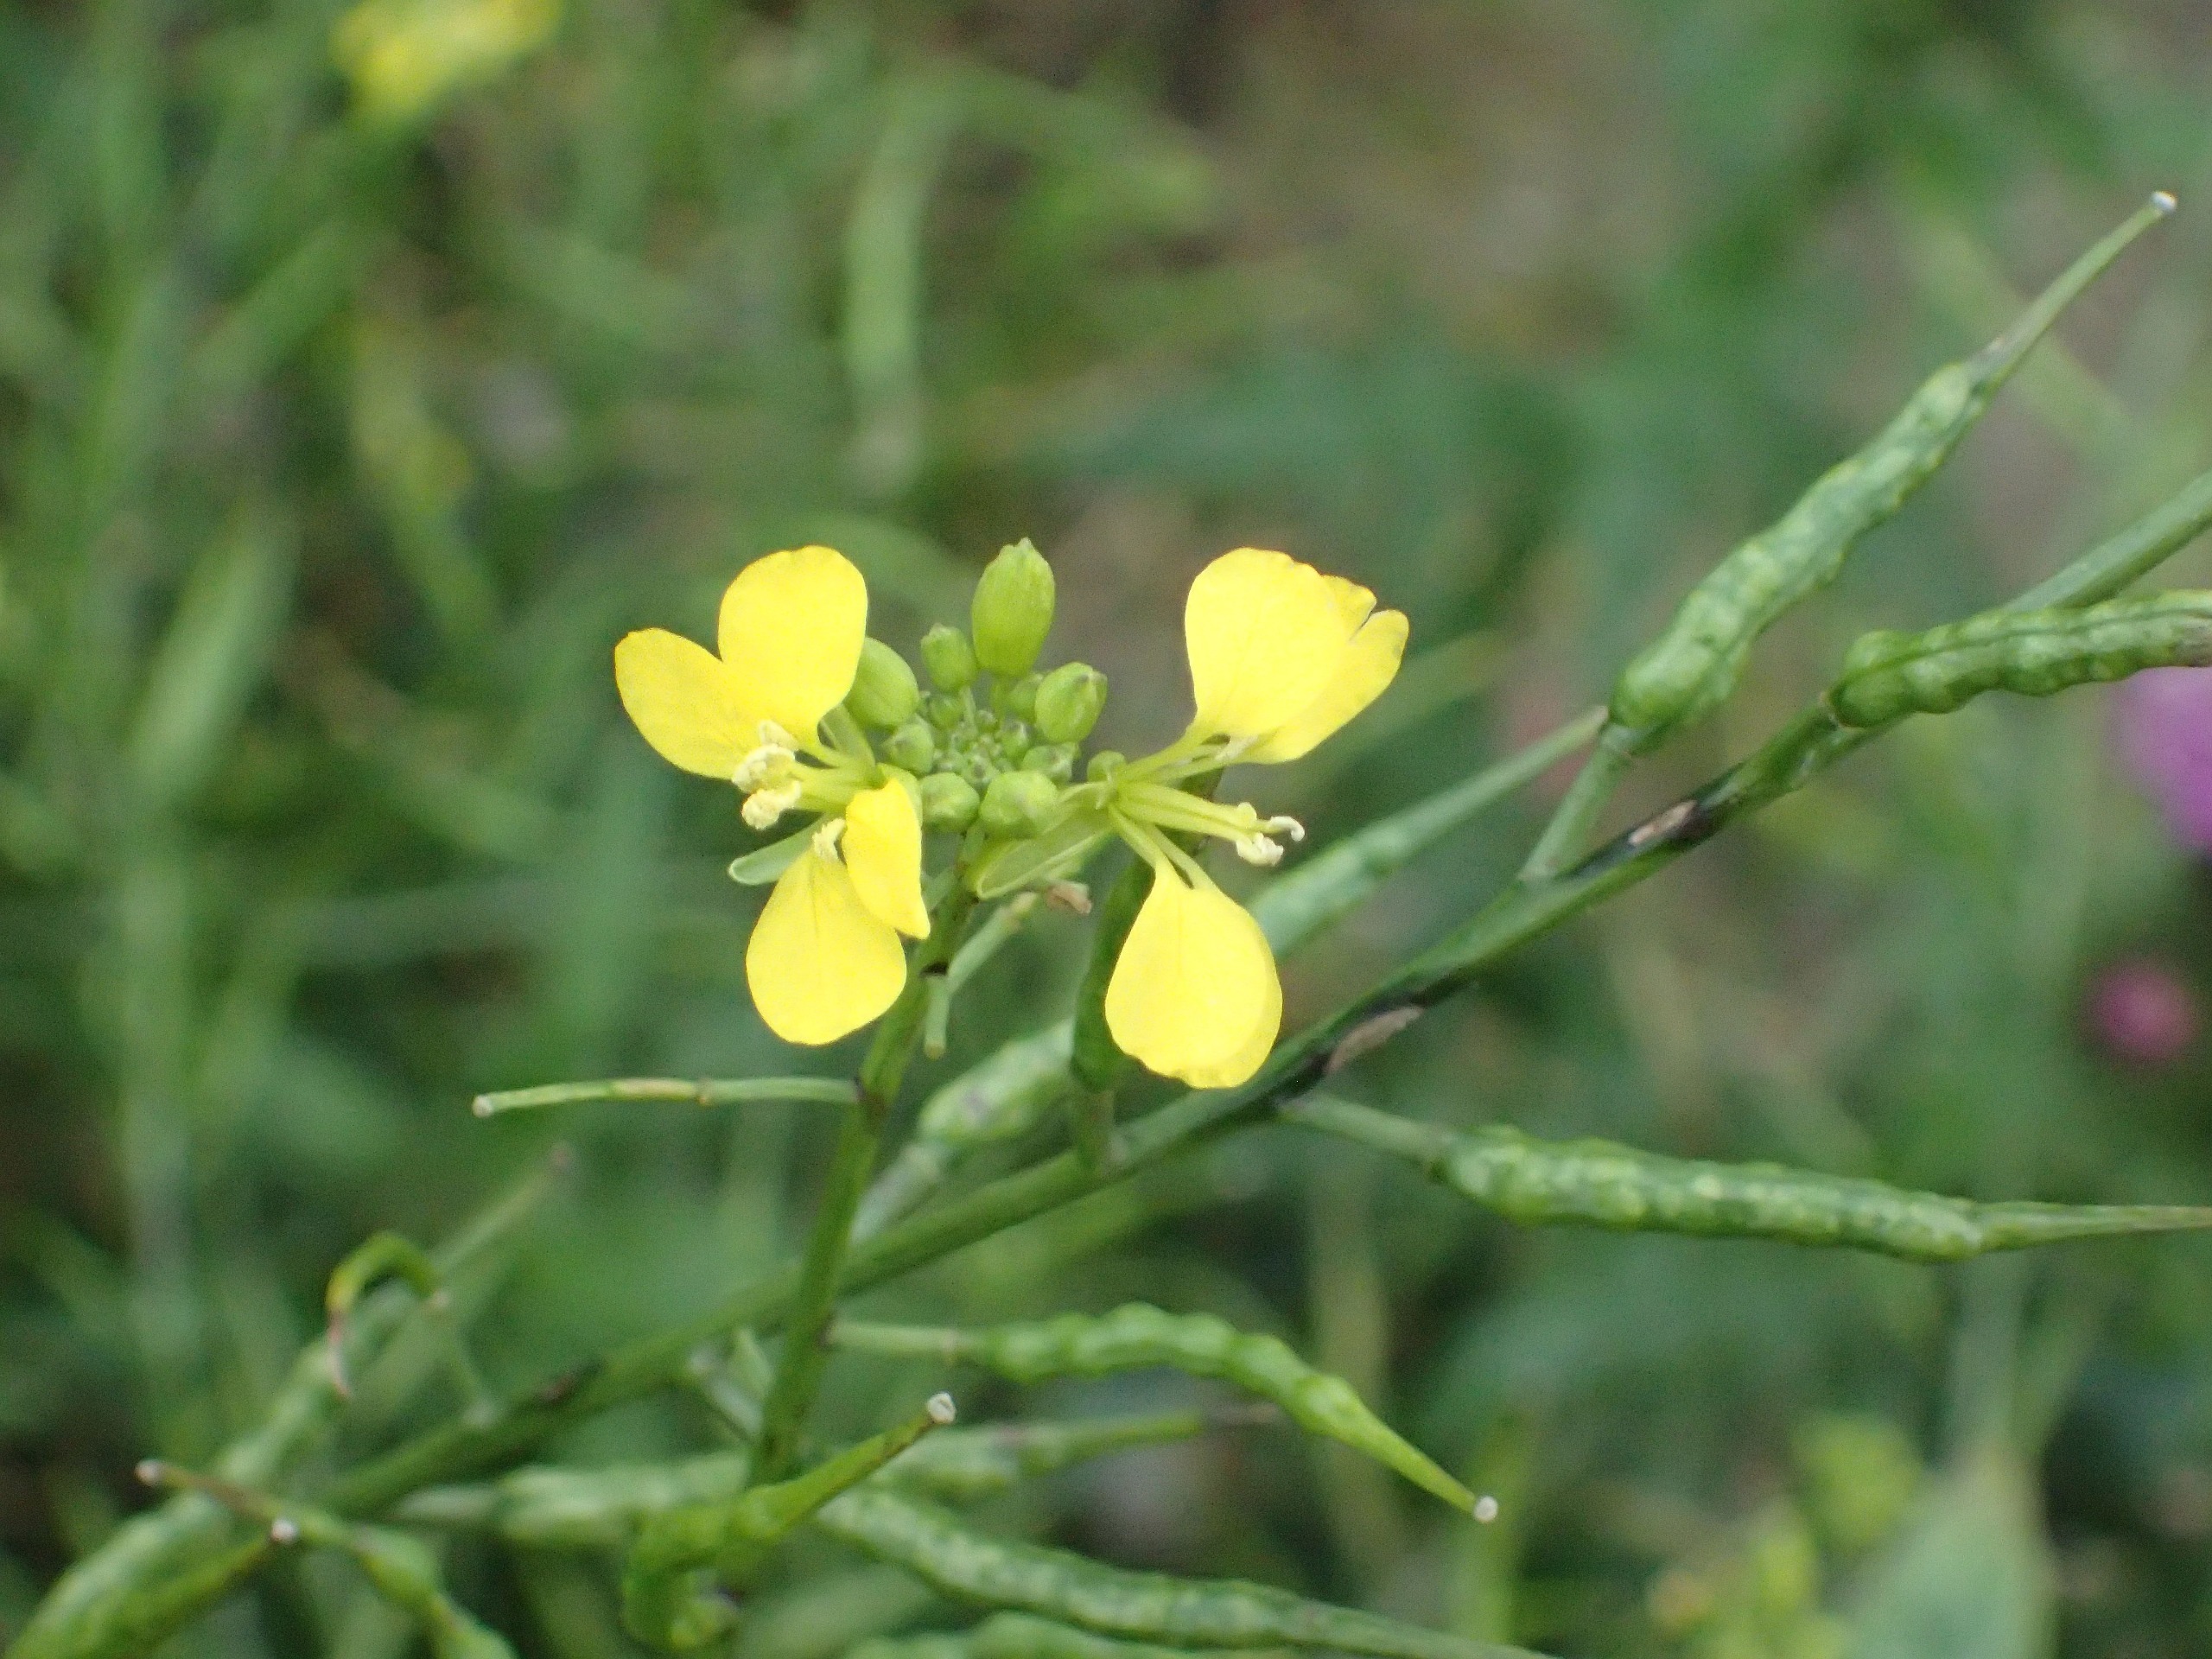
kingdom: Plantae
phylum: Tracheophyta
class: Magnoliopsida
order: Brassicales
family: Brassicaceae
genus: Sinapis
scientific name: Sinapis arvensis
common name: Ager-sennep
